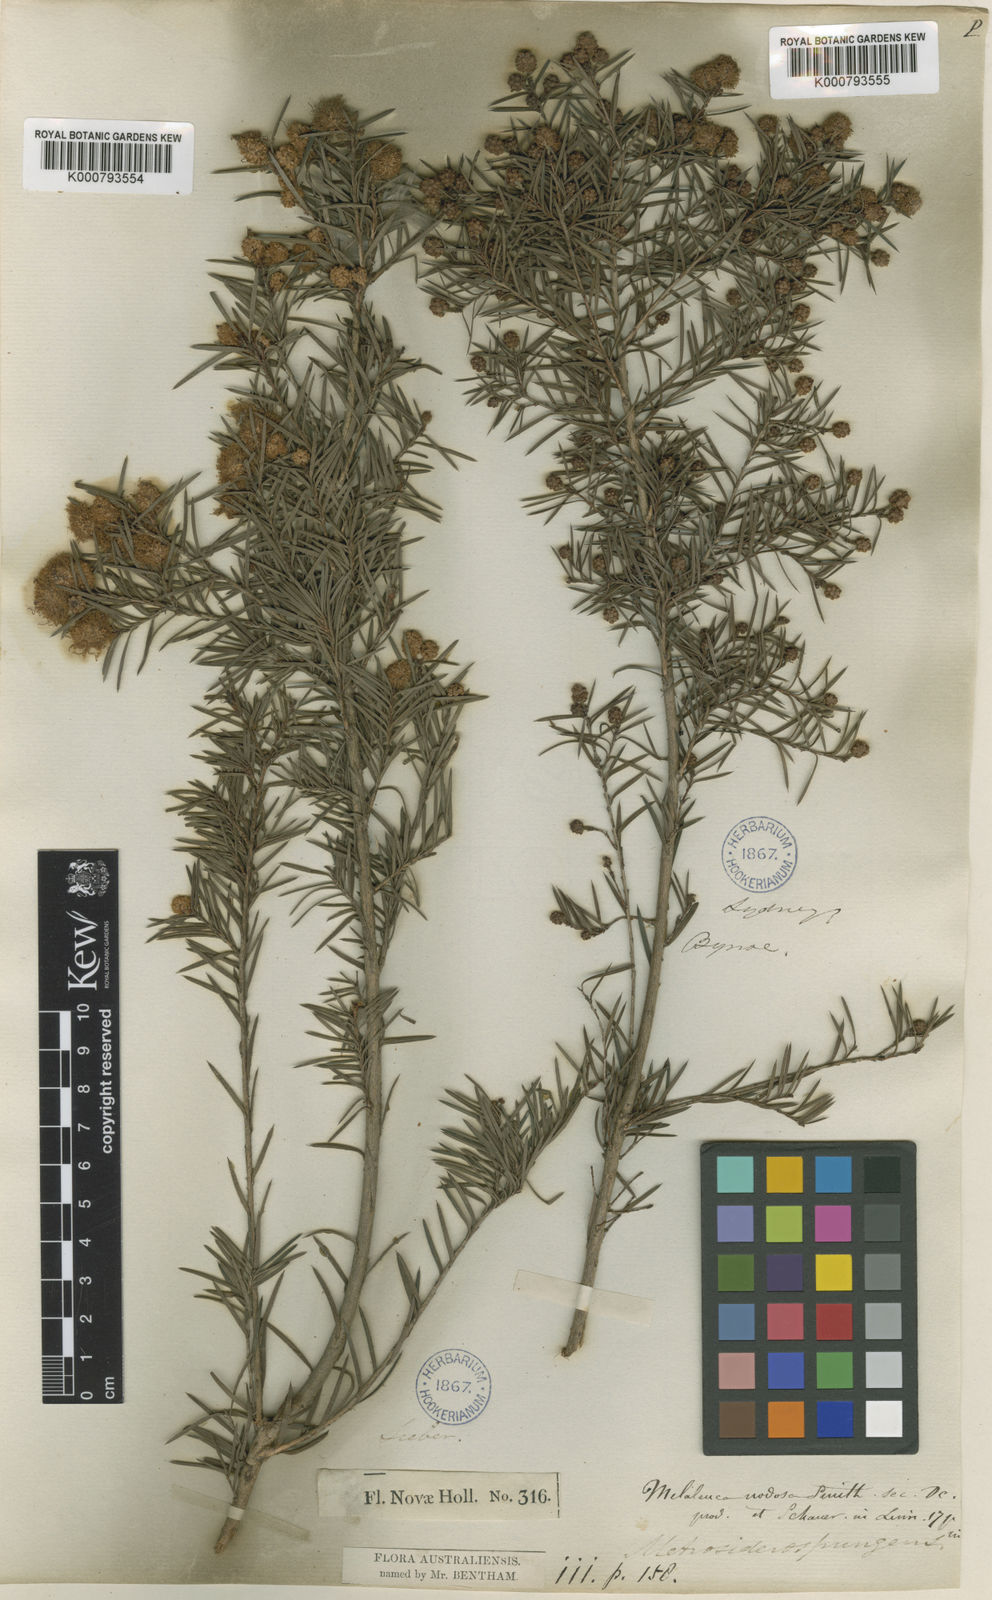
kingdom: Plantae
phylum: Tracheophyta
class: Magnoliopsida
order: Myrtales
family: Myrtaceae
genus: Melaleuca
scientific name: Melaleuca nodosa
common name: Prickly-leaf paperbark
